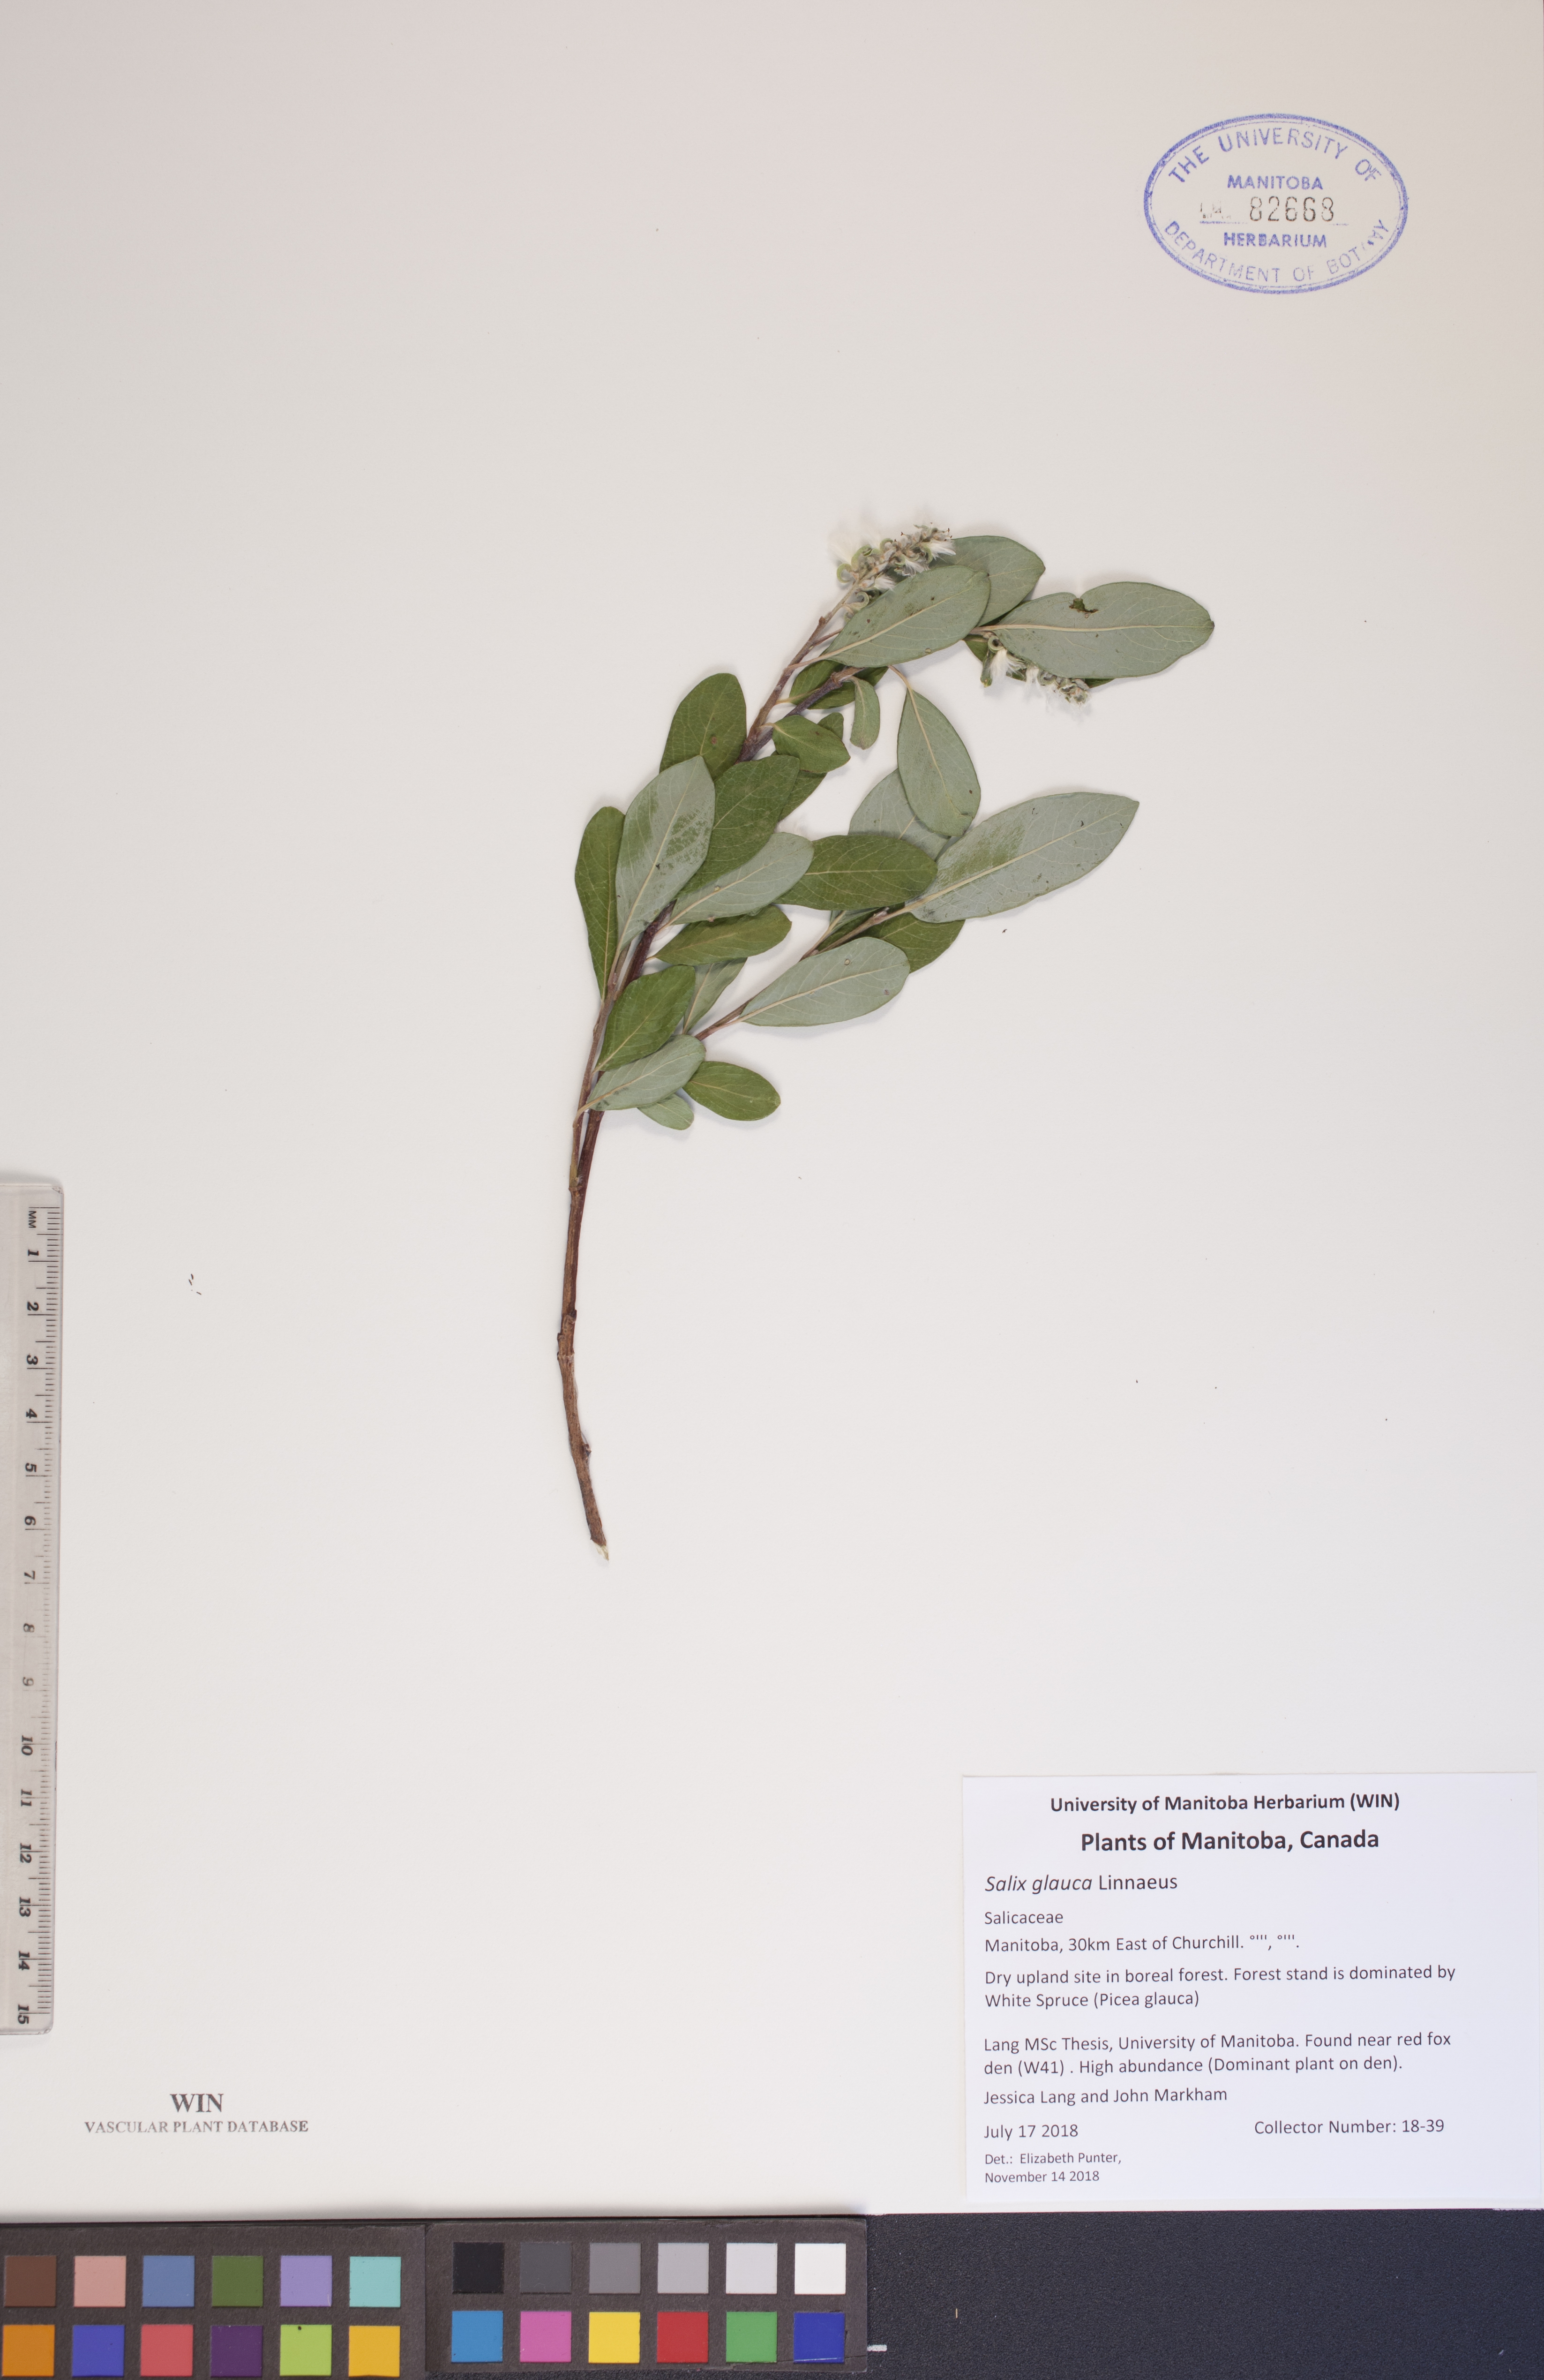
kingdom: Plantae
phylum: Tracheophyta
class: Magnoliopsida
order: Malpighiales
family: Salicaceae
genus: Salix
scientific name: Salix glauca
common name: Glaucous willow
